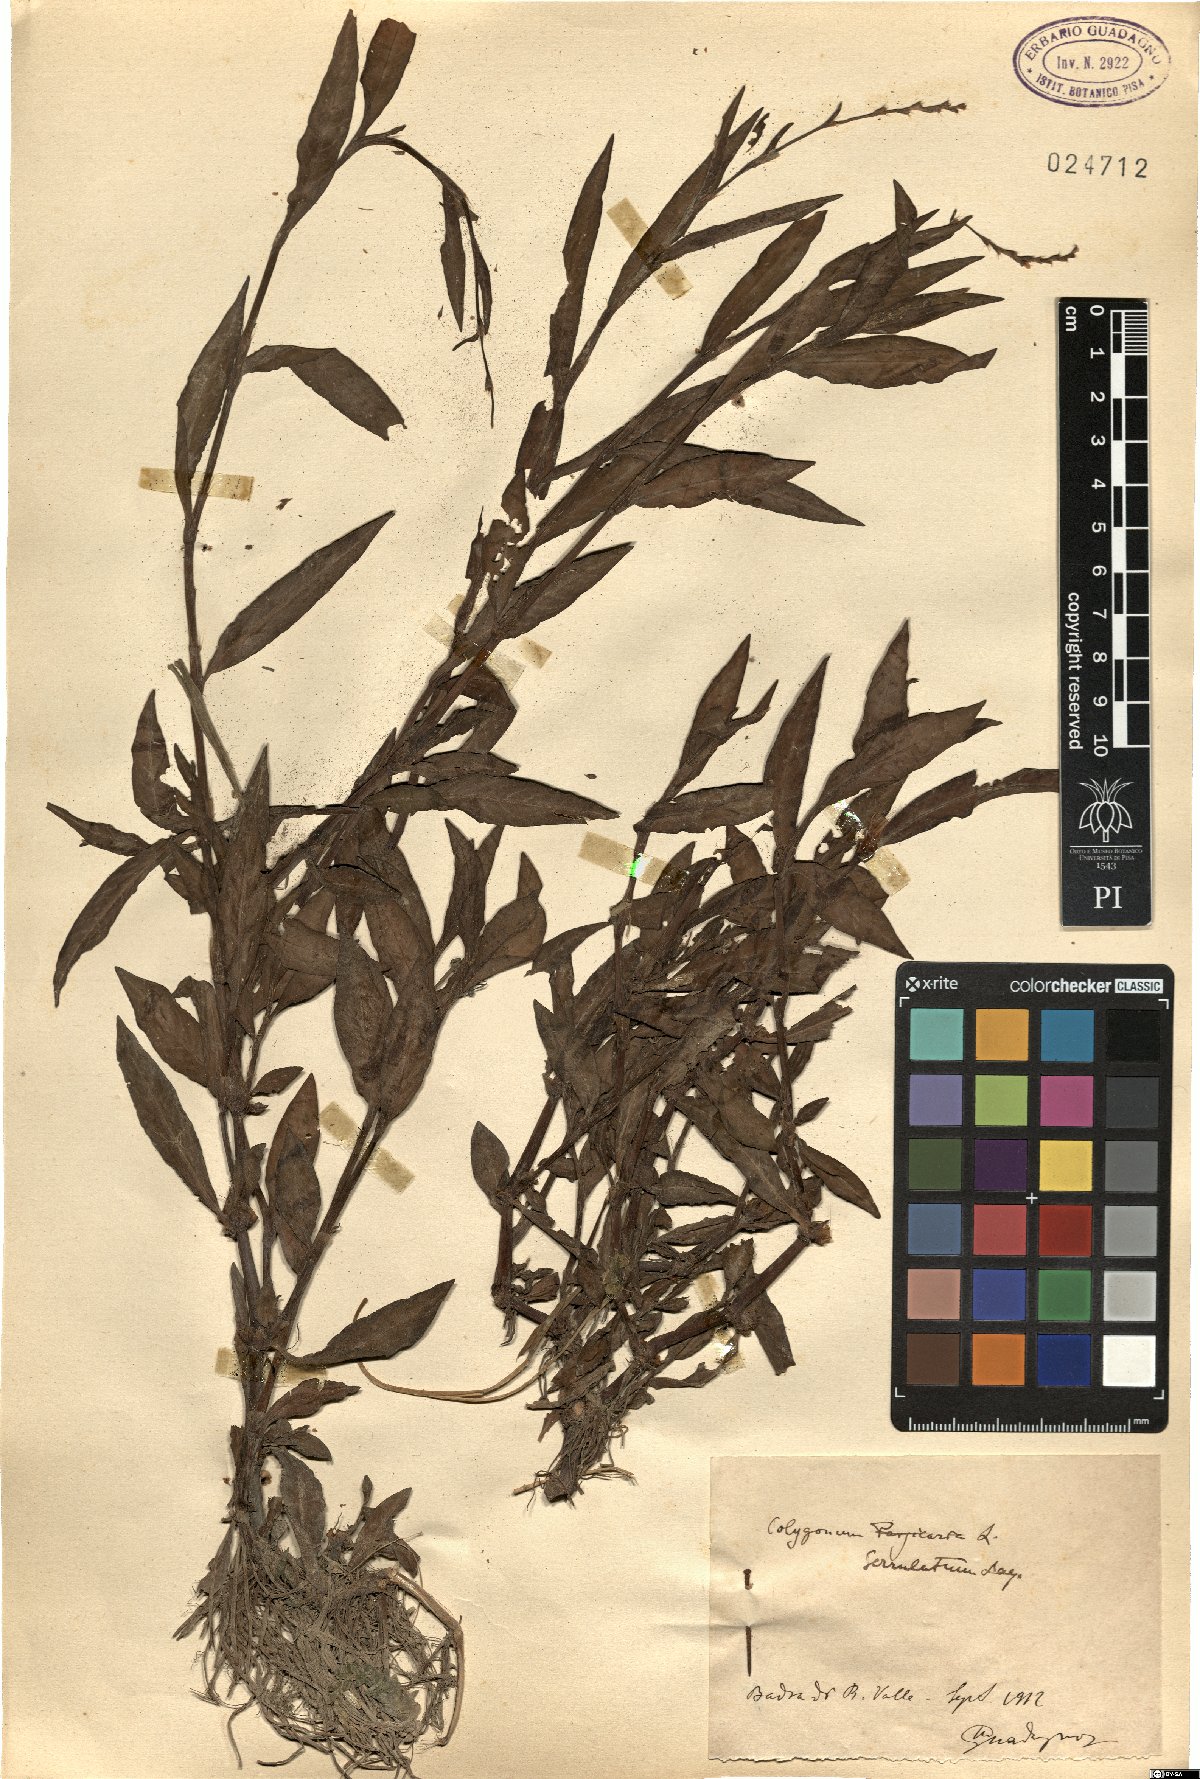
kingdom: Plantae
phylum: Tracheophyta
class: Magnoliopsida
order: Caryophyllales
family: Polygonaceae
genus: Persicaria
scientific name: Persicaria salicifolia
